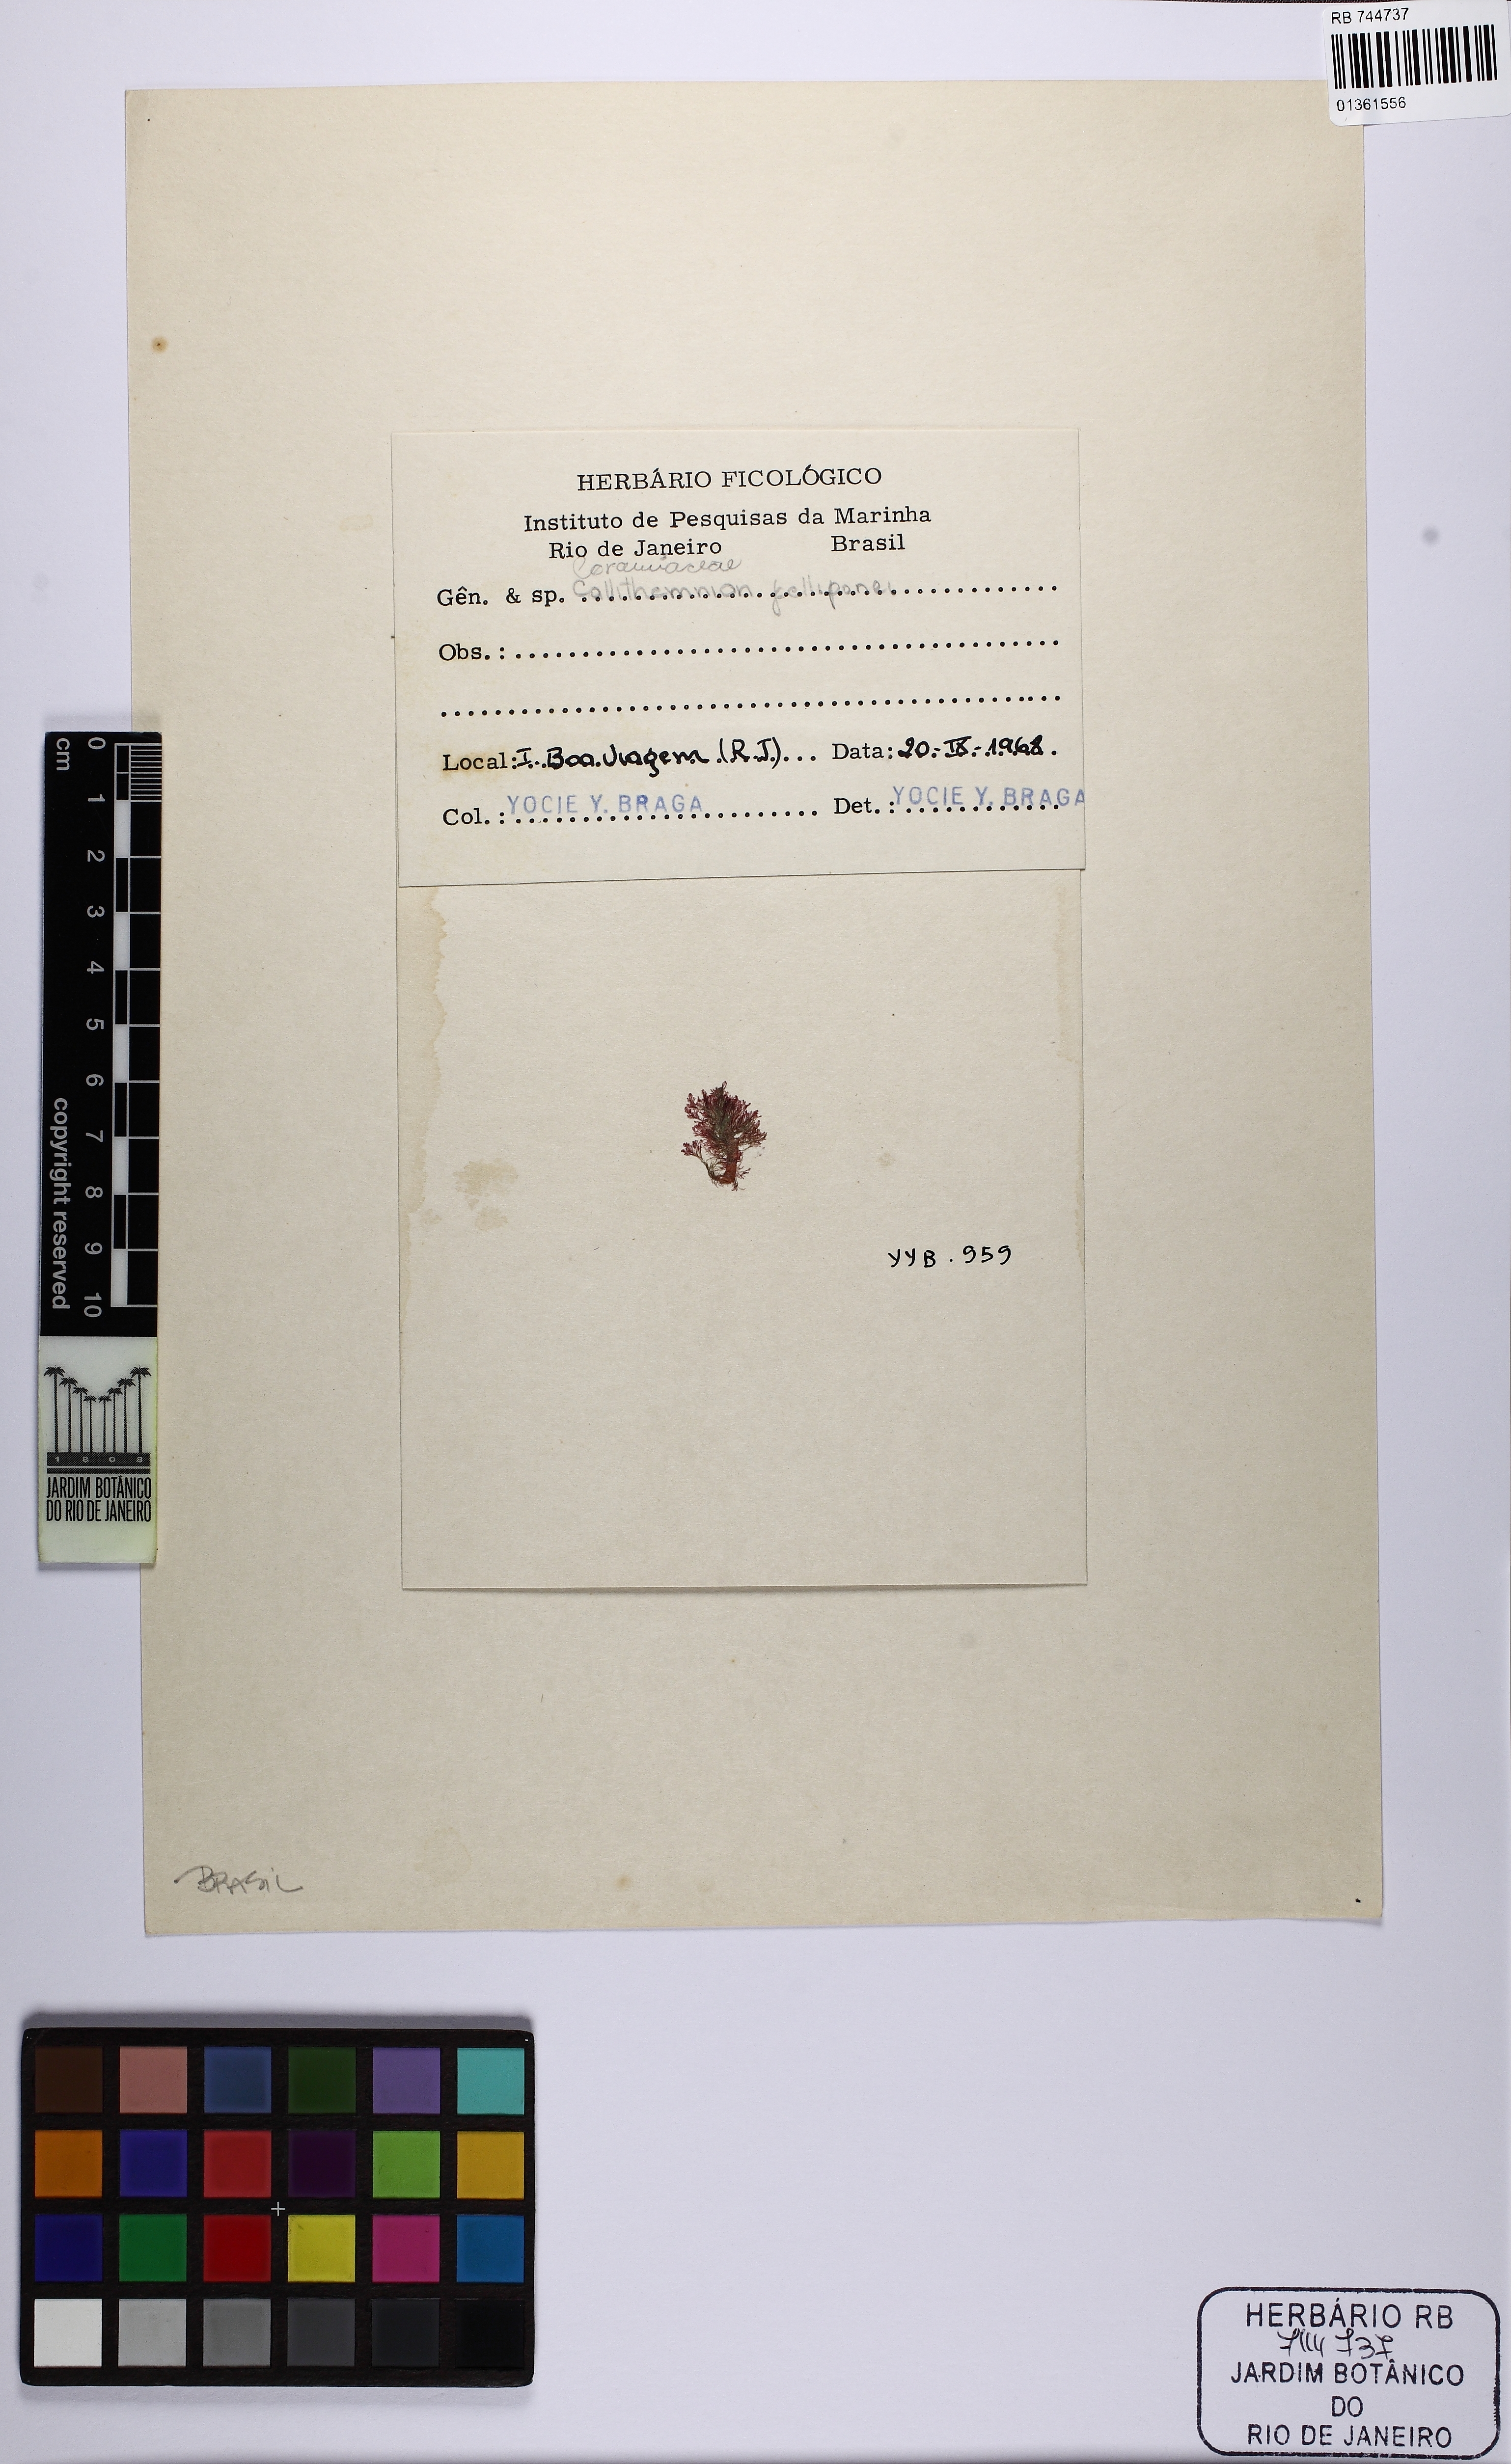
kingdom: Plantae
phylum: Rhodophyta
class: Florideophyceae
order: Ceramiales
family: Callithamniaceae
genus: Aglaothamnion
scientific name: Aglaothamnion felipponei
